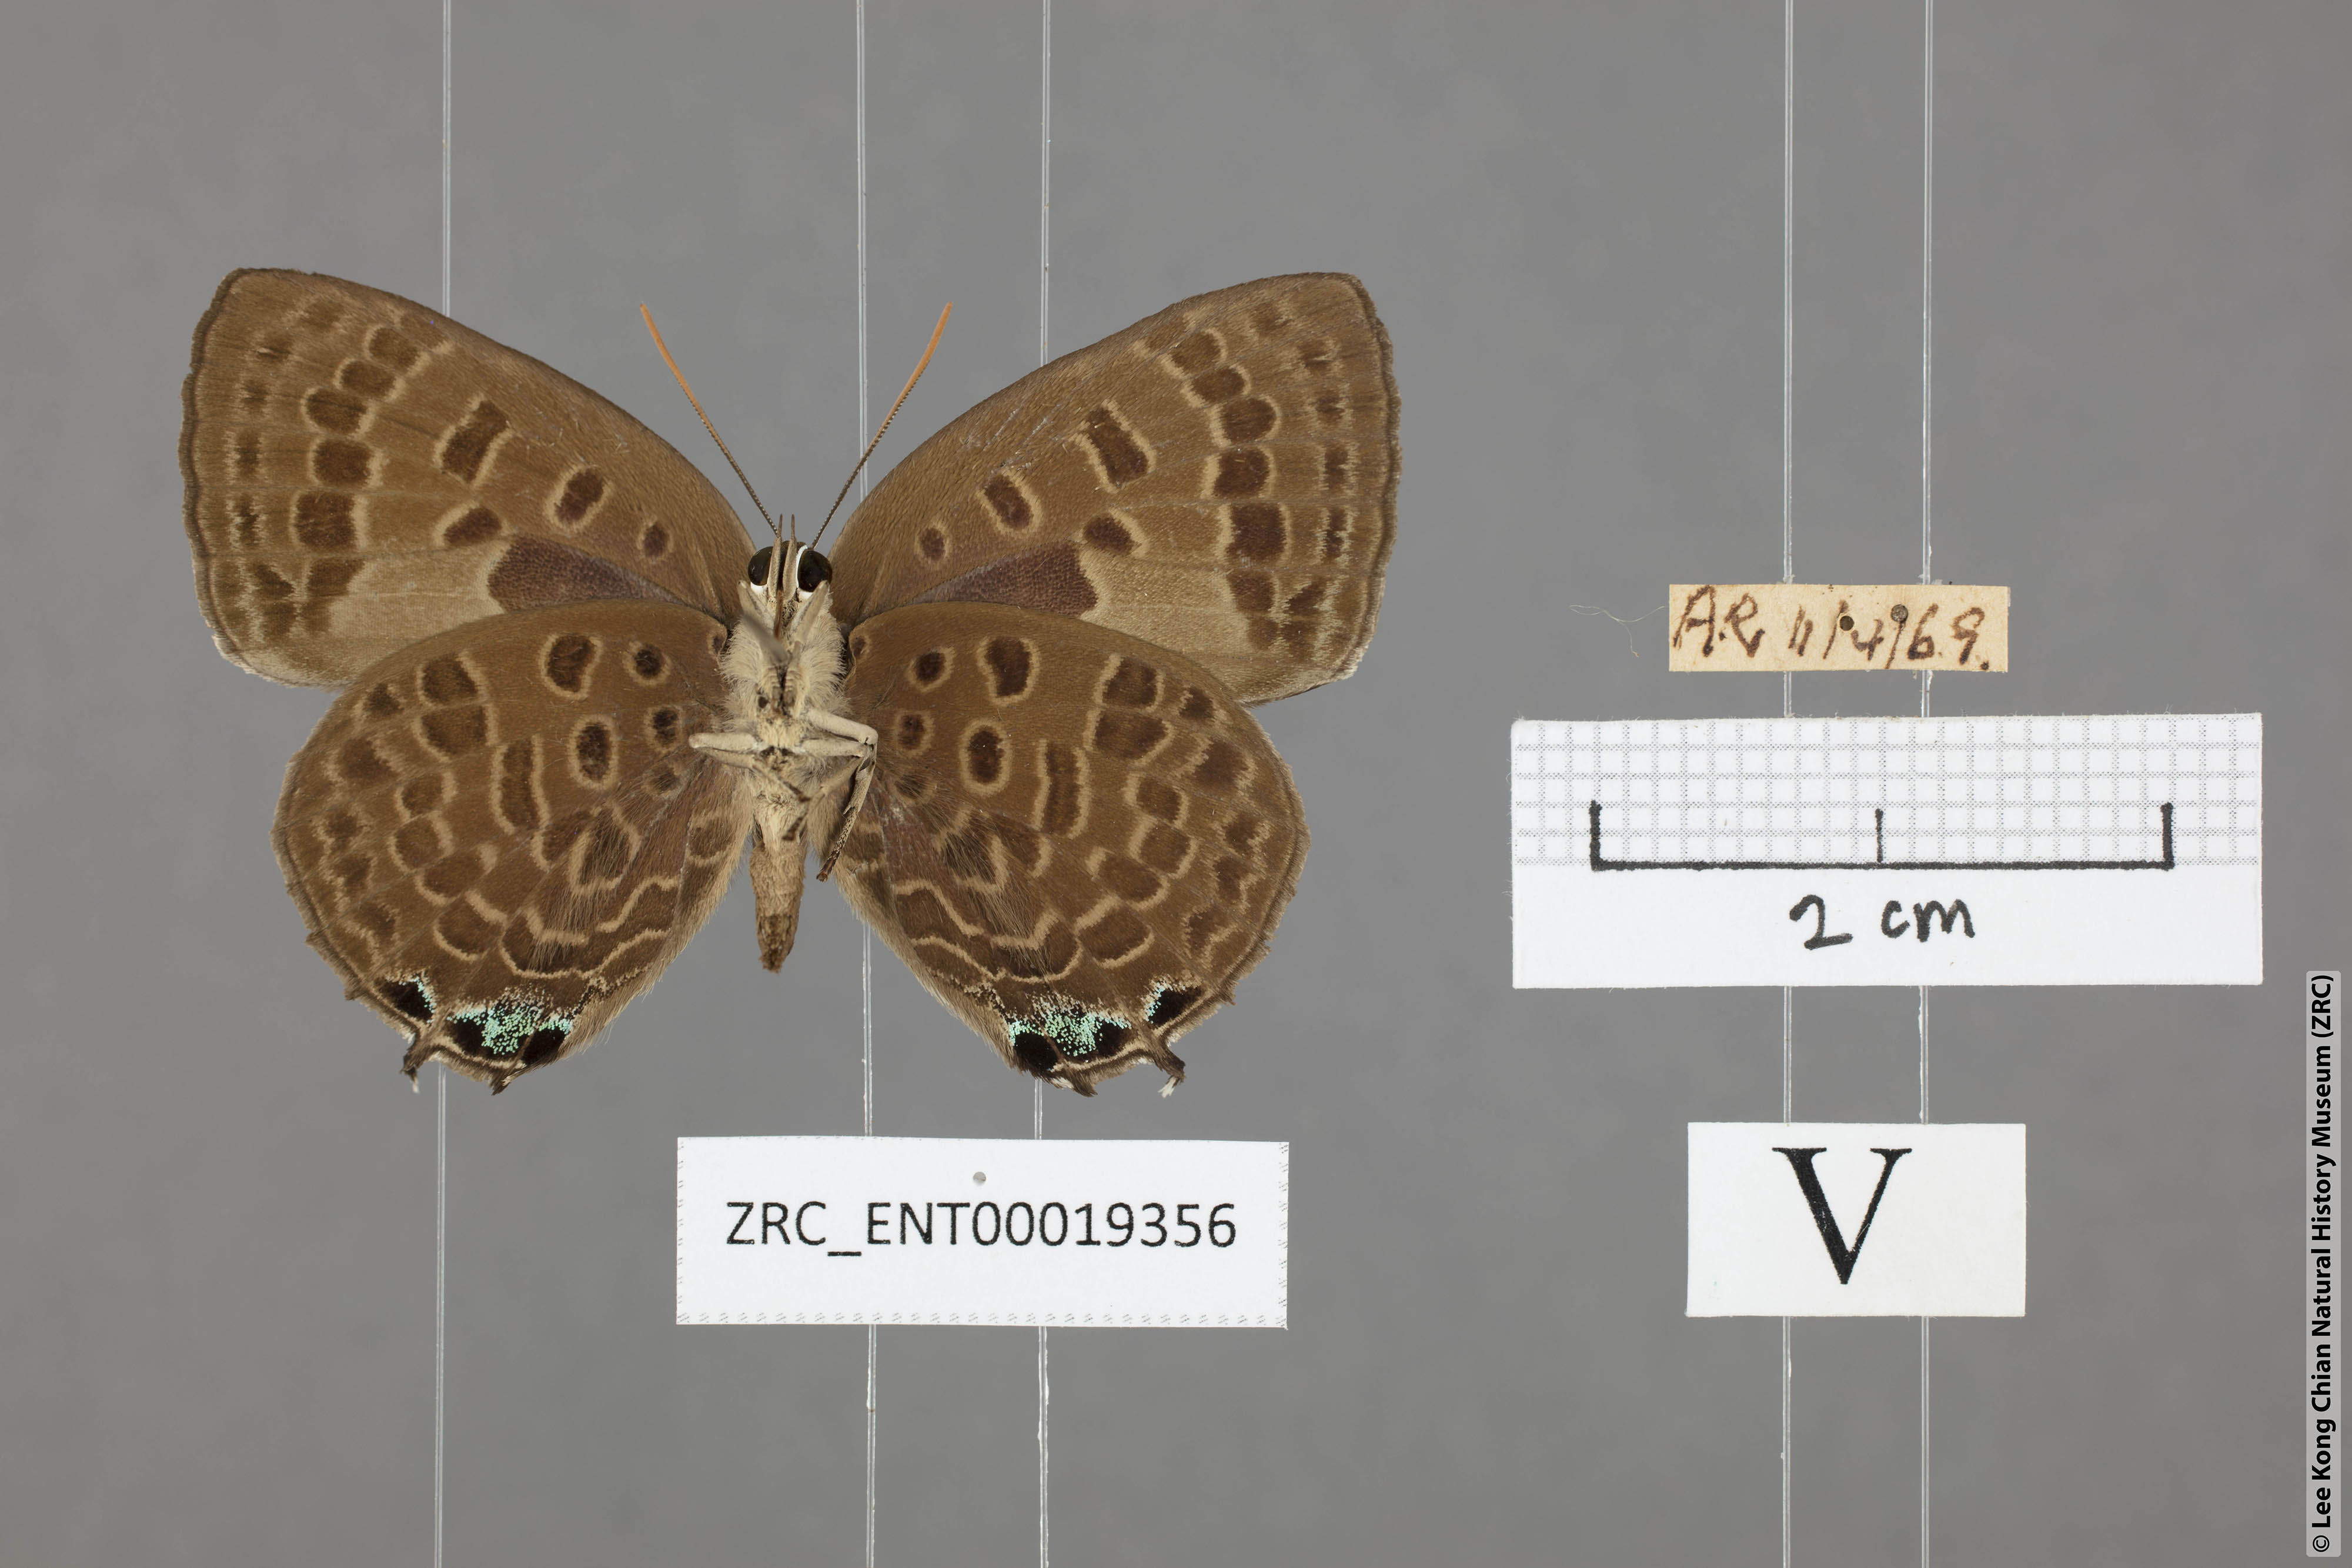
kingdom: Animalia
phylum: Arthropoda
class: Insecta
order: Lepidoptera
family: Lycaenidae
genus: Arhopala
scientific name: Arhopala corinda
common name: Ultramarine oakblue
